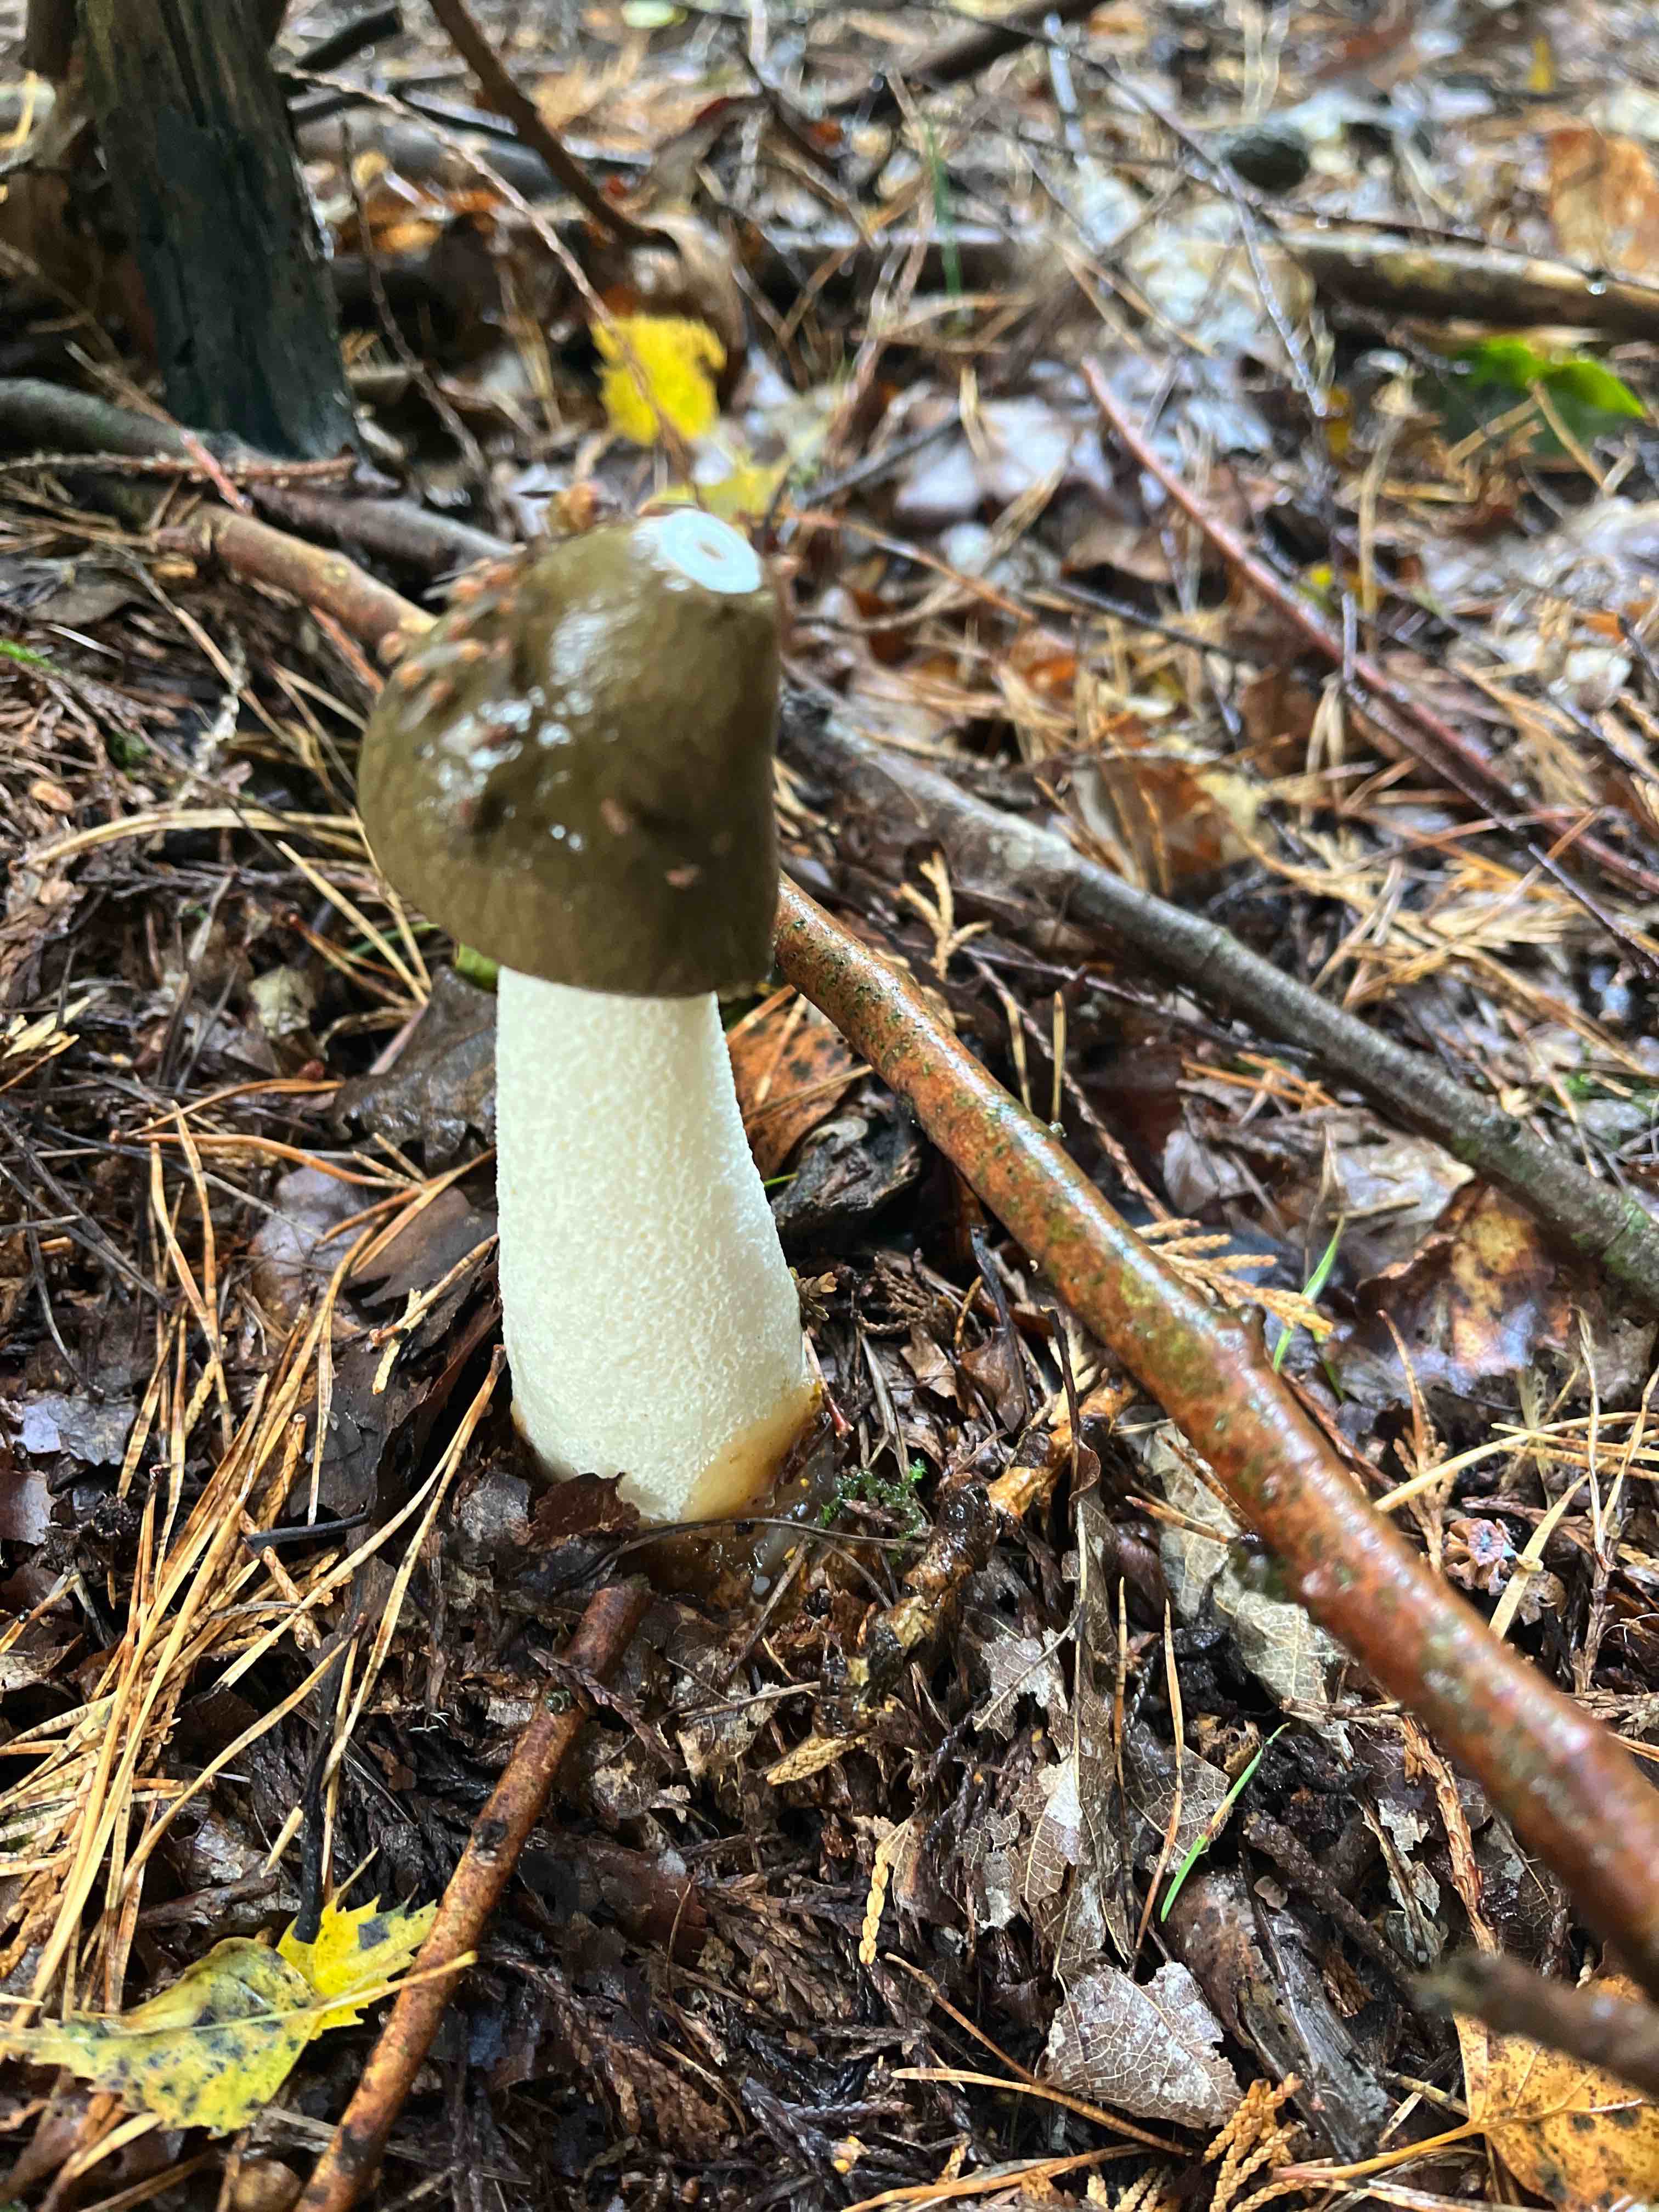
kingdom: Fungi
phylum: Basidiomycota
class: Agaricomycetes
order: Phallales
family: Phallaceae
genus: Phallus
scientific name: Phallus impudicus
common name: almindelig stinksvamp
